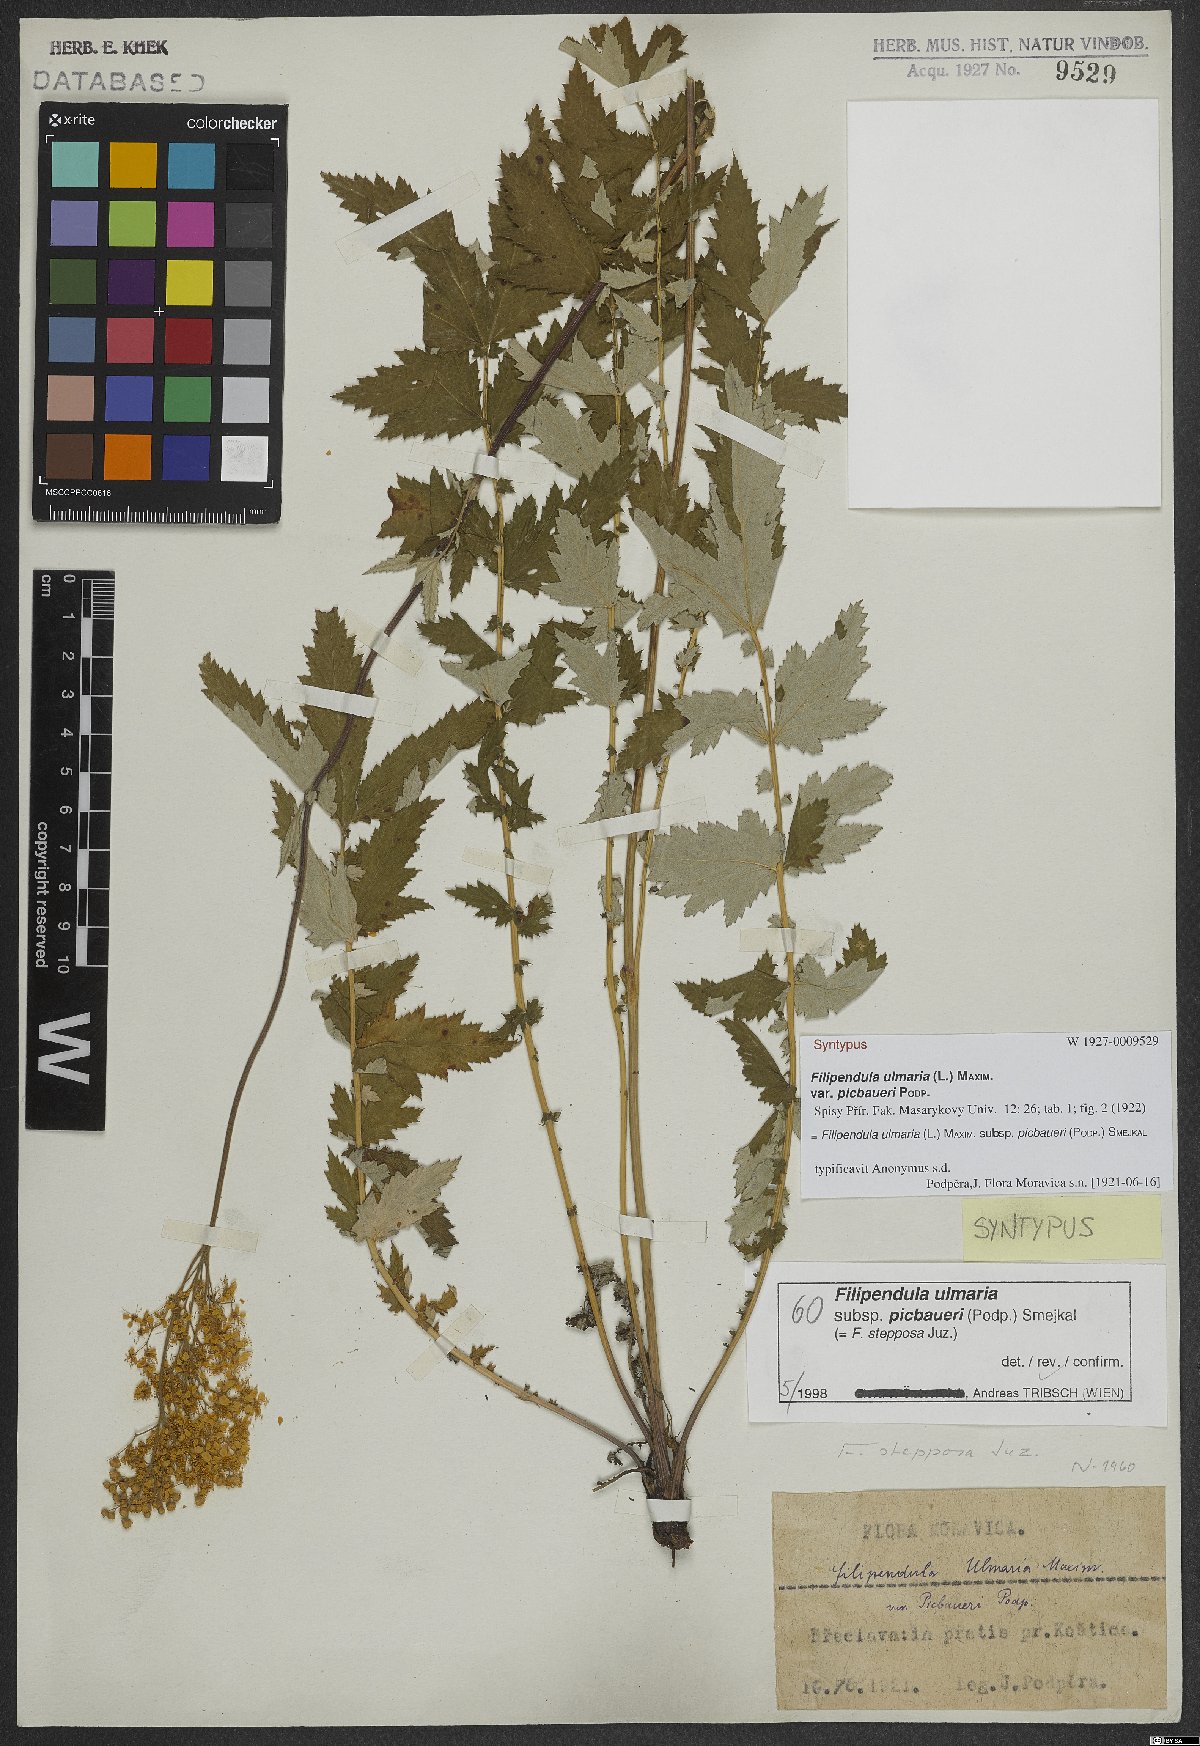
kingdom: Plantae
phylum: Tracheophyta
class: Magnoliopsida
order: Rosales
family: Rosaceae
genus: Filipendula
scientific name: Filipendula ulmaria
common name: Meadowsweet
